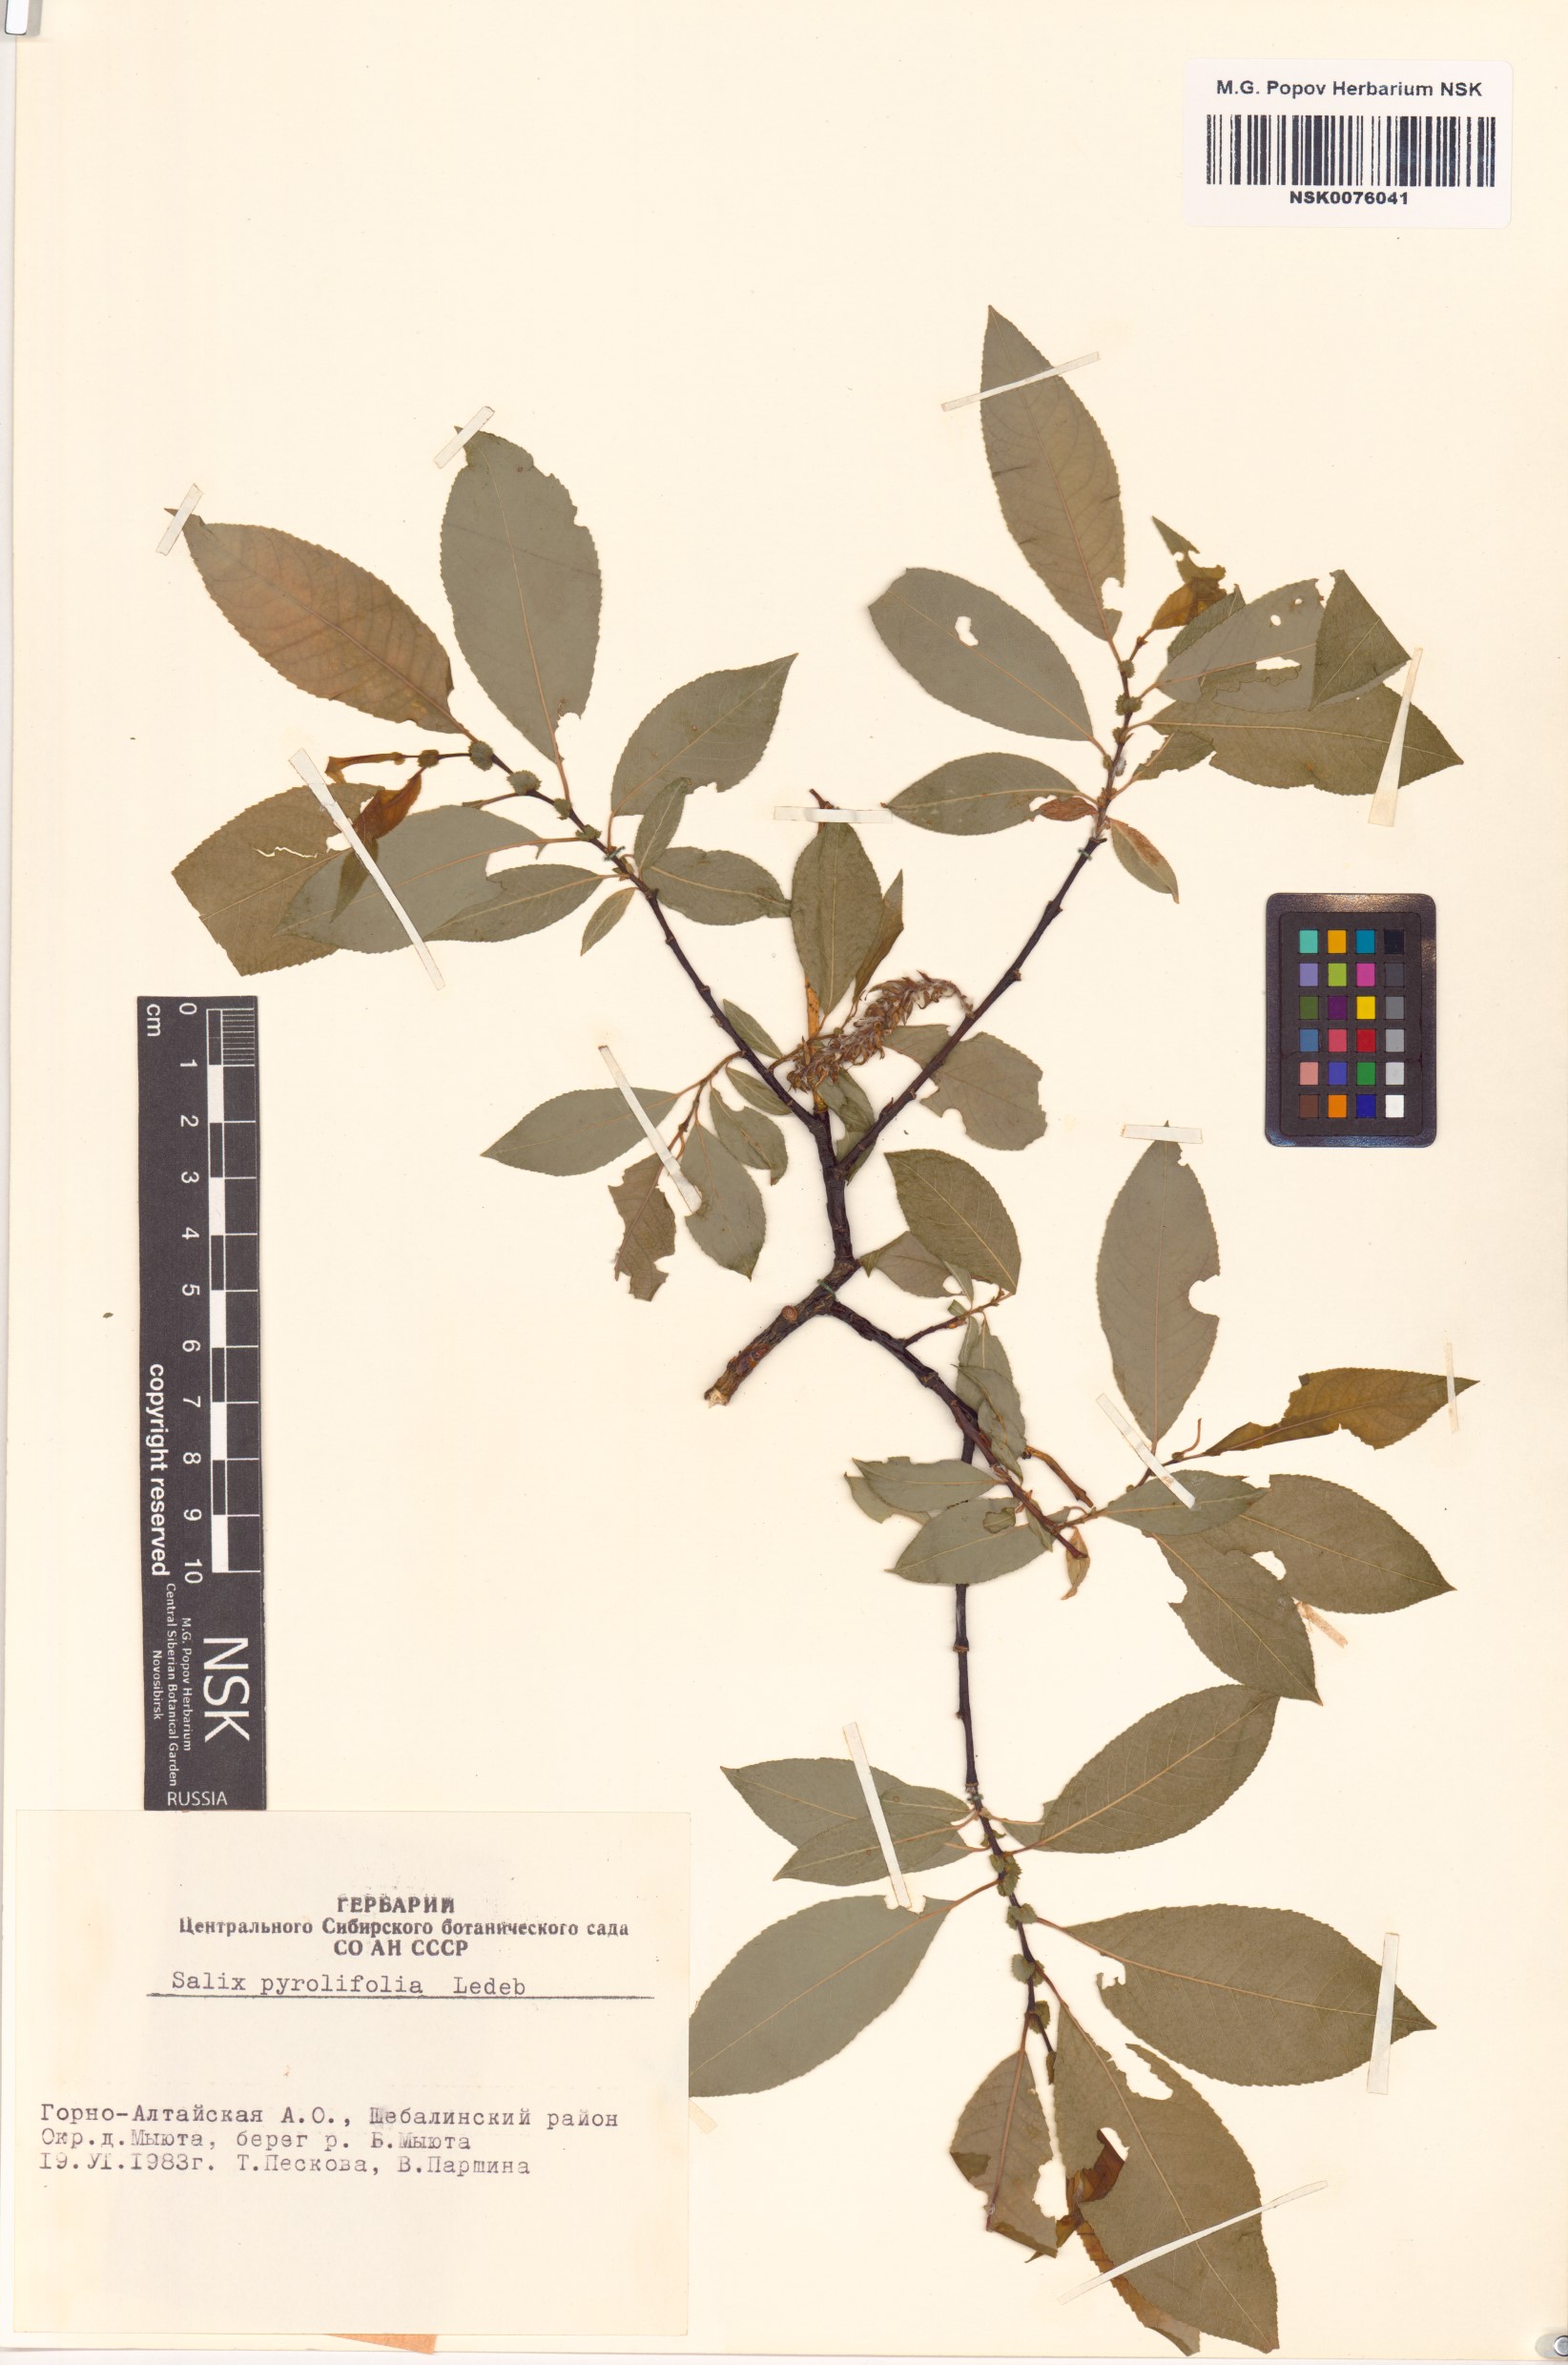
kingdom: Plantae
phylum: Tracheophyta
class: Magnoliopsida
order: Malpighiales
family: Salicaceae
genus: Salix
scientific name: Salix pyrolifolia
